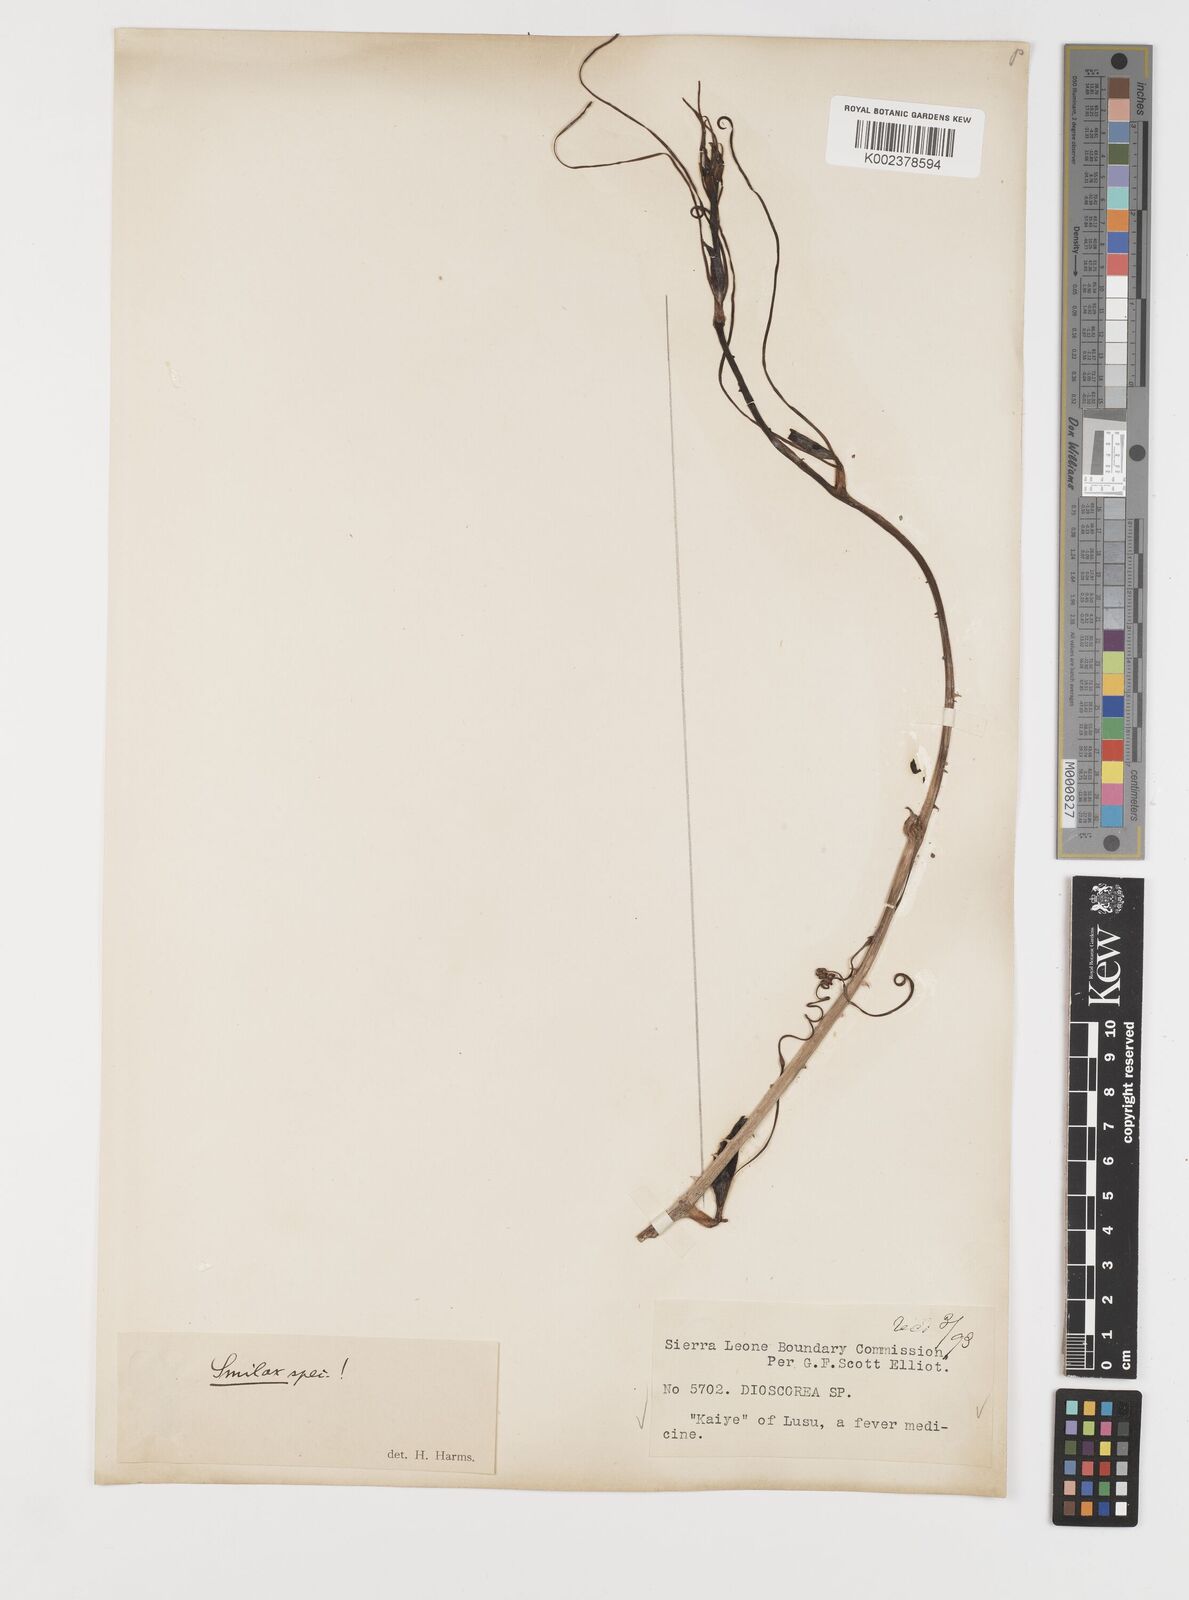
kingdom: Plantae
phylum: Tracheophyta
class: Liliopsida
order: Liliales
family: Smilacaceae
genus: Smilax
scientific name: Smilax anceps
